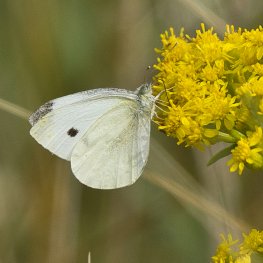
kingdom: Animalia
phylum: Arthropoda
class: Insecta
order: Lepidoptera
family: Pieridae
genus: Pieris
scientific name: Pieris rapae
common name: Cabbage White
